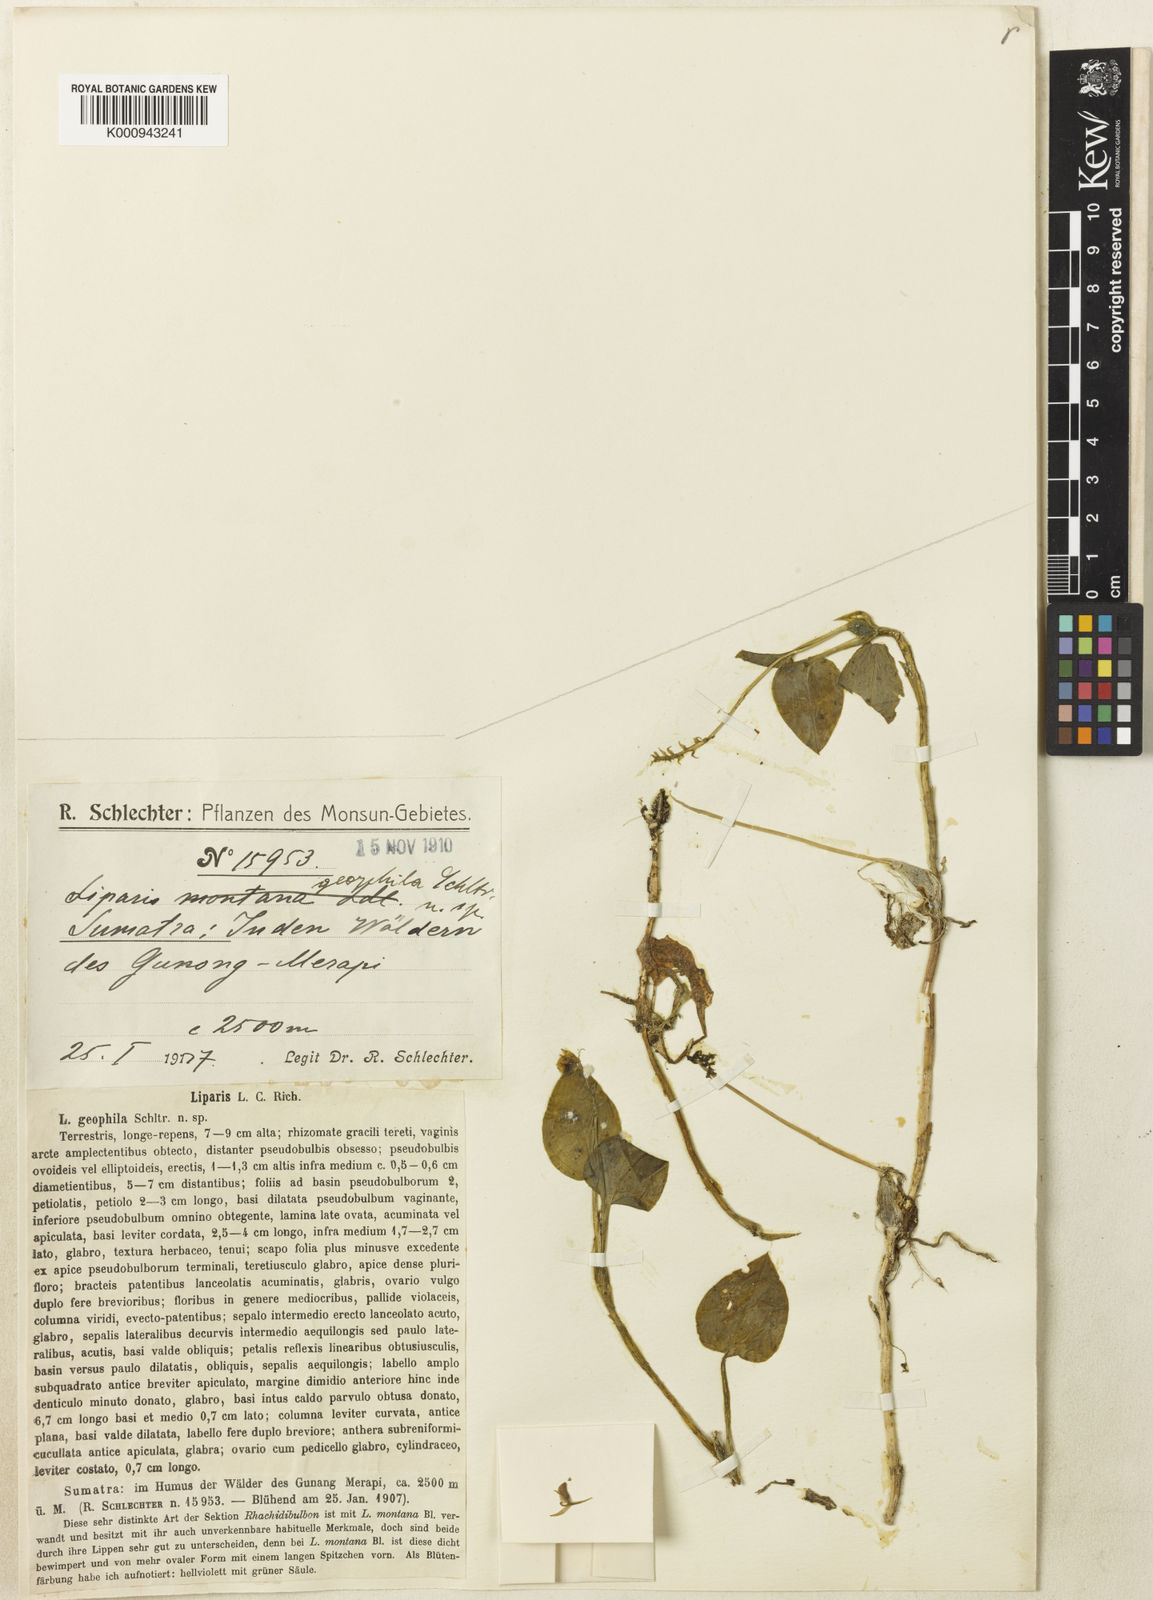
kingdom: Plantae
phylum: Tracheophyta
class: Liliopsida
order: Asparagales
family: Orchidaceae
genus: Liparis
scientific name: Liparis geophila
